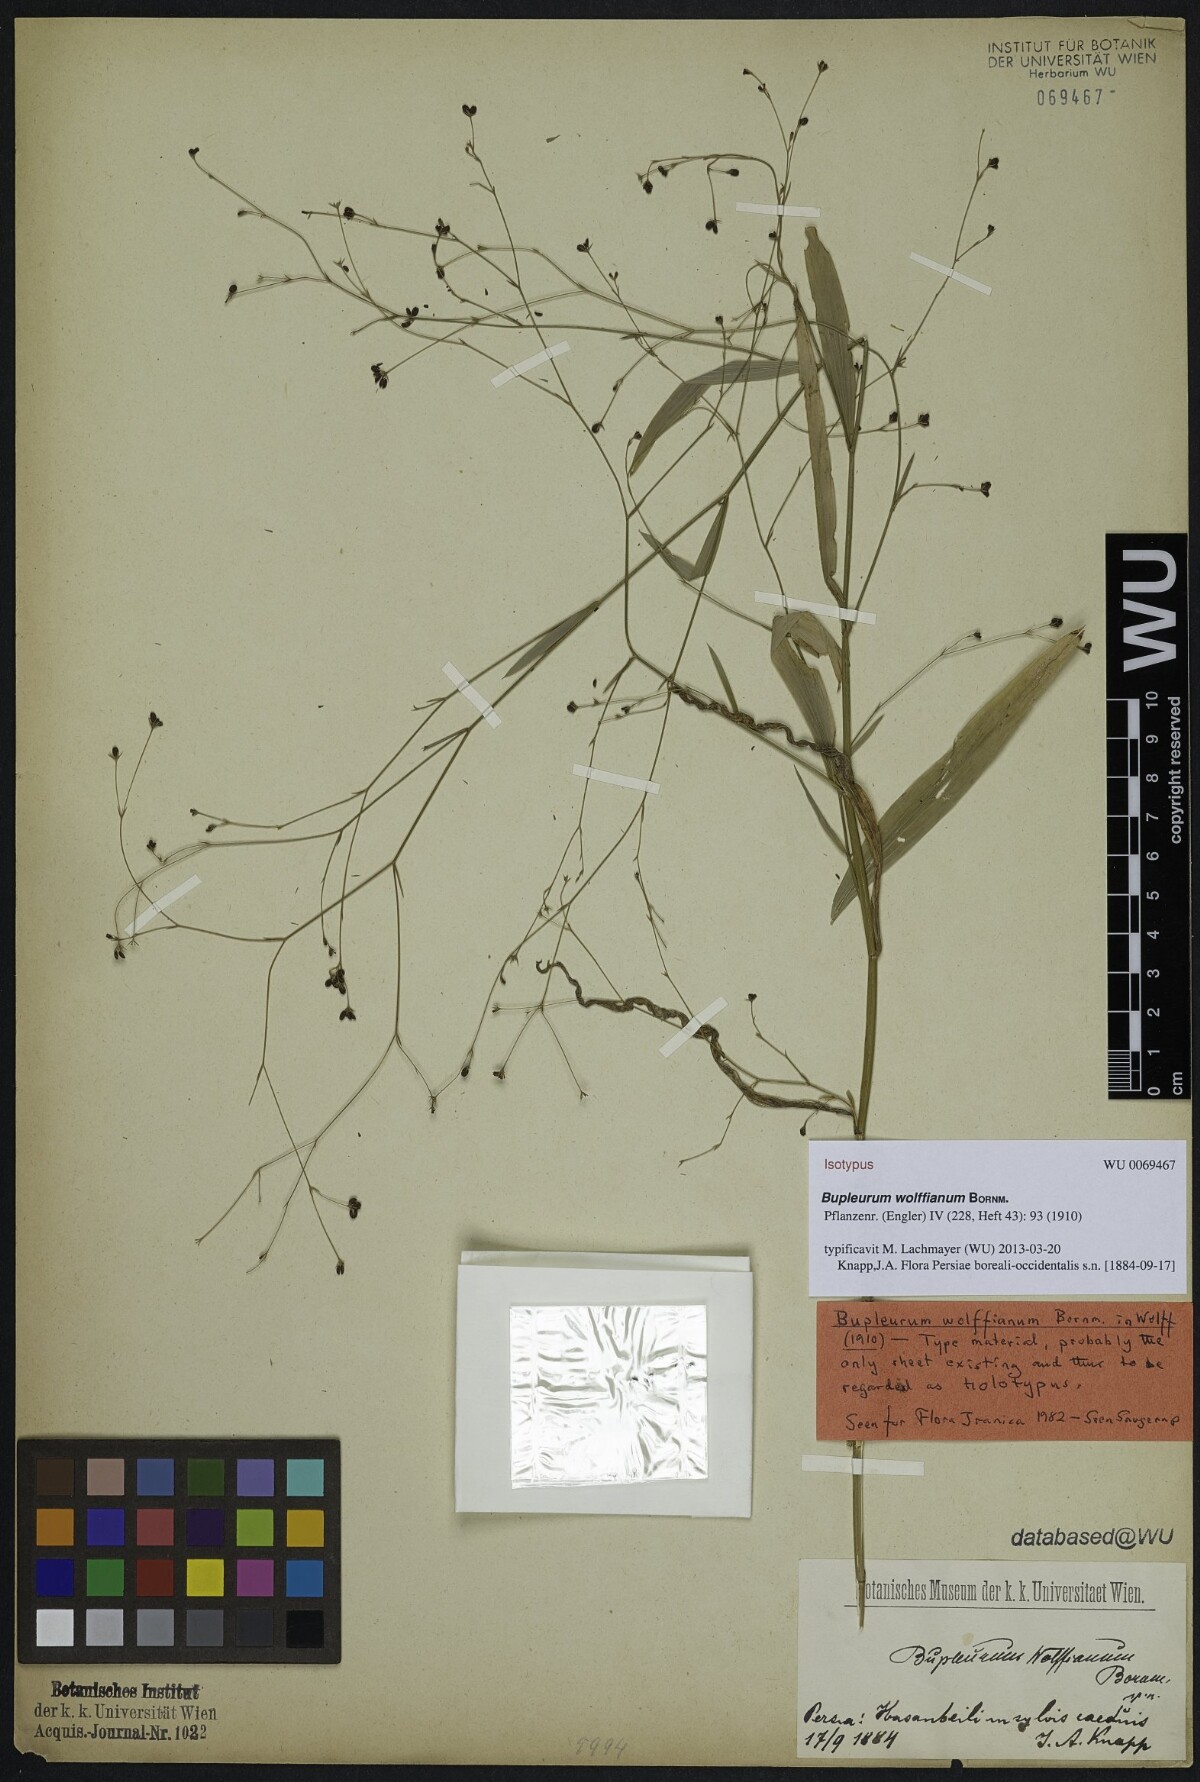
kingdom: Plantae
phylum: Tracheophyta
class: Magnoliopsida
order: Apiales
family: Apiaceae
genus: Bupleurum
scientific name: Bupleurum wolffianum
